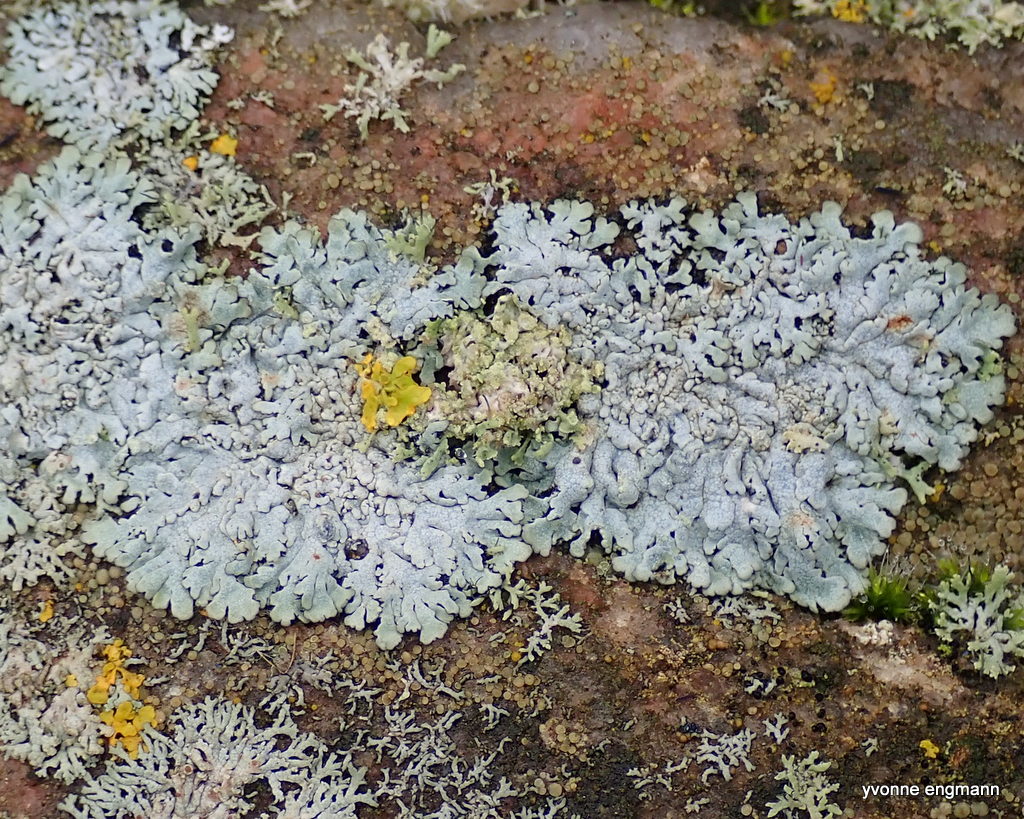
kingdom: Fungi
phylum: Ascomycota
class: Lecanoromycetes
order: Caliciales
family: Physciaceae
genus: Physcia
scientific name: Physcia caesia
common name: blågrå rosetlav
